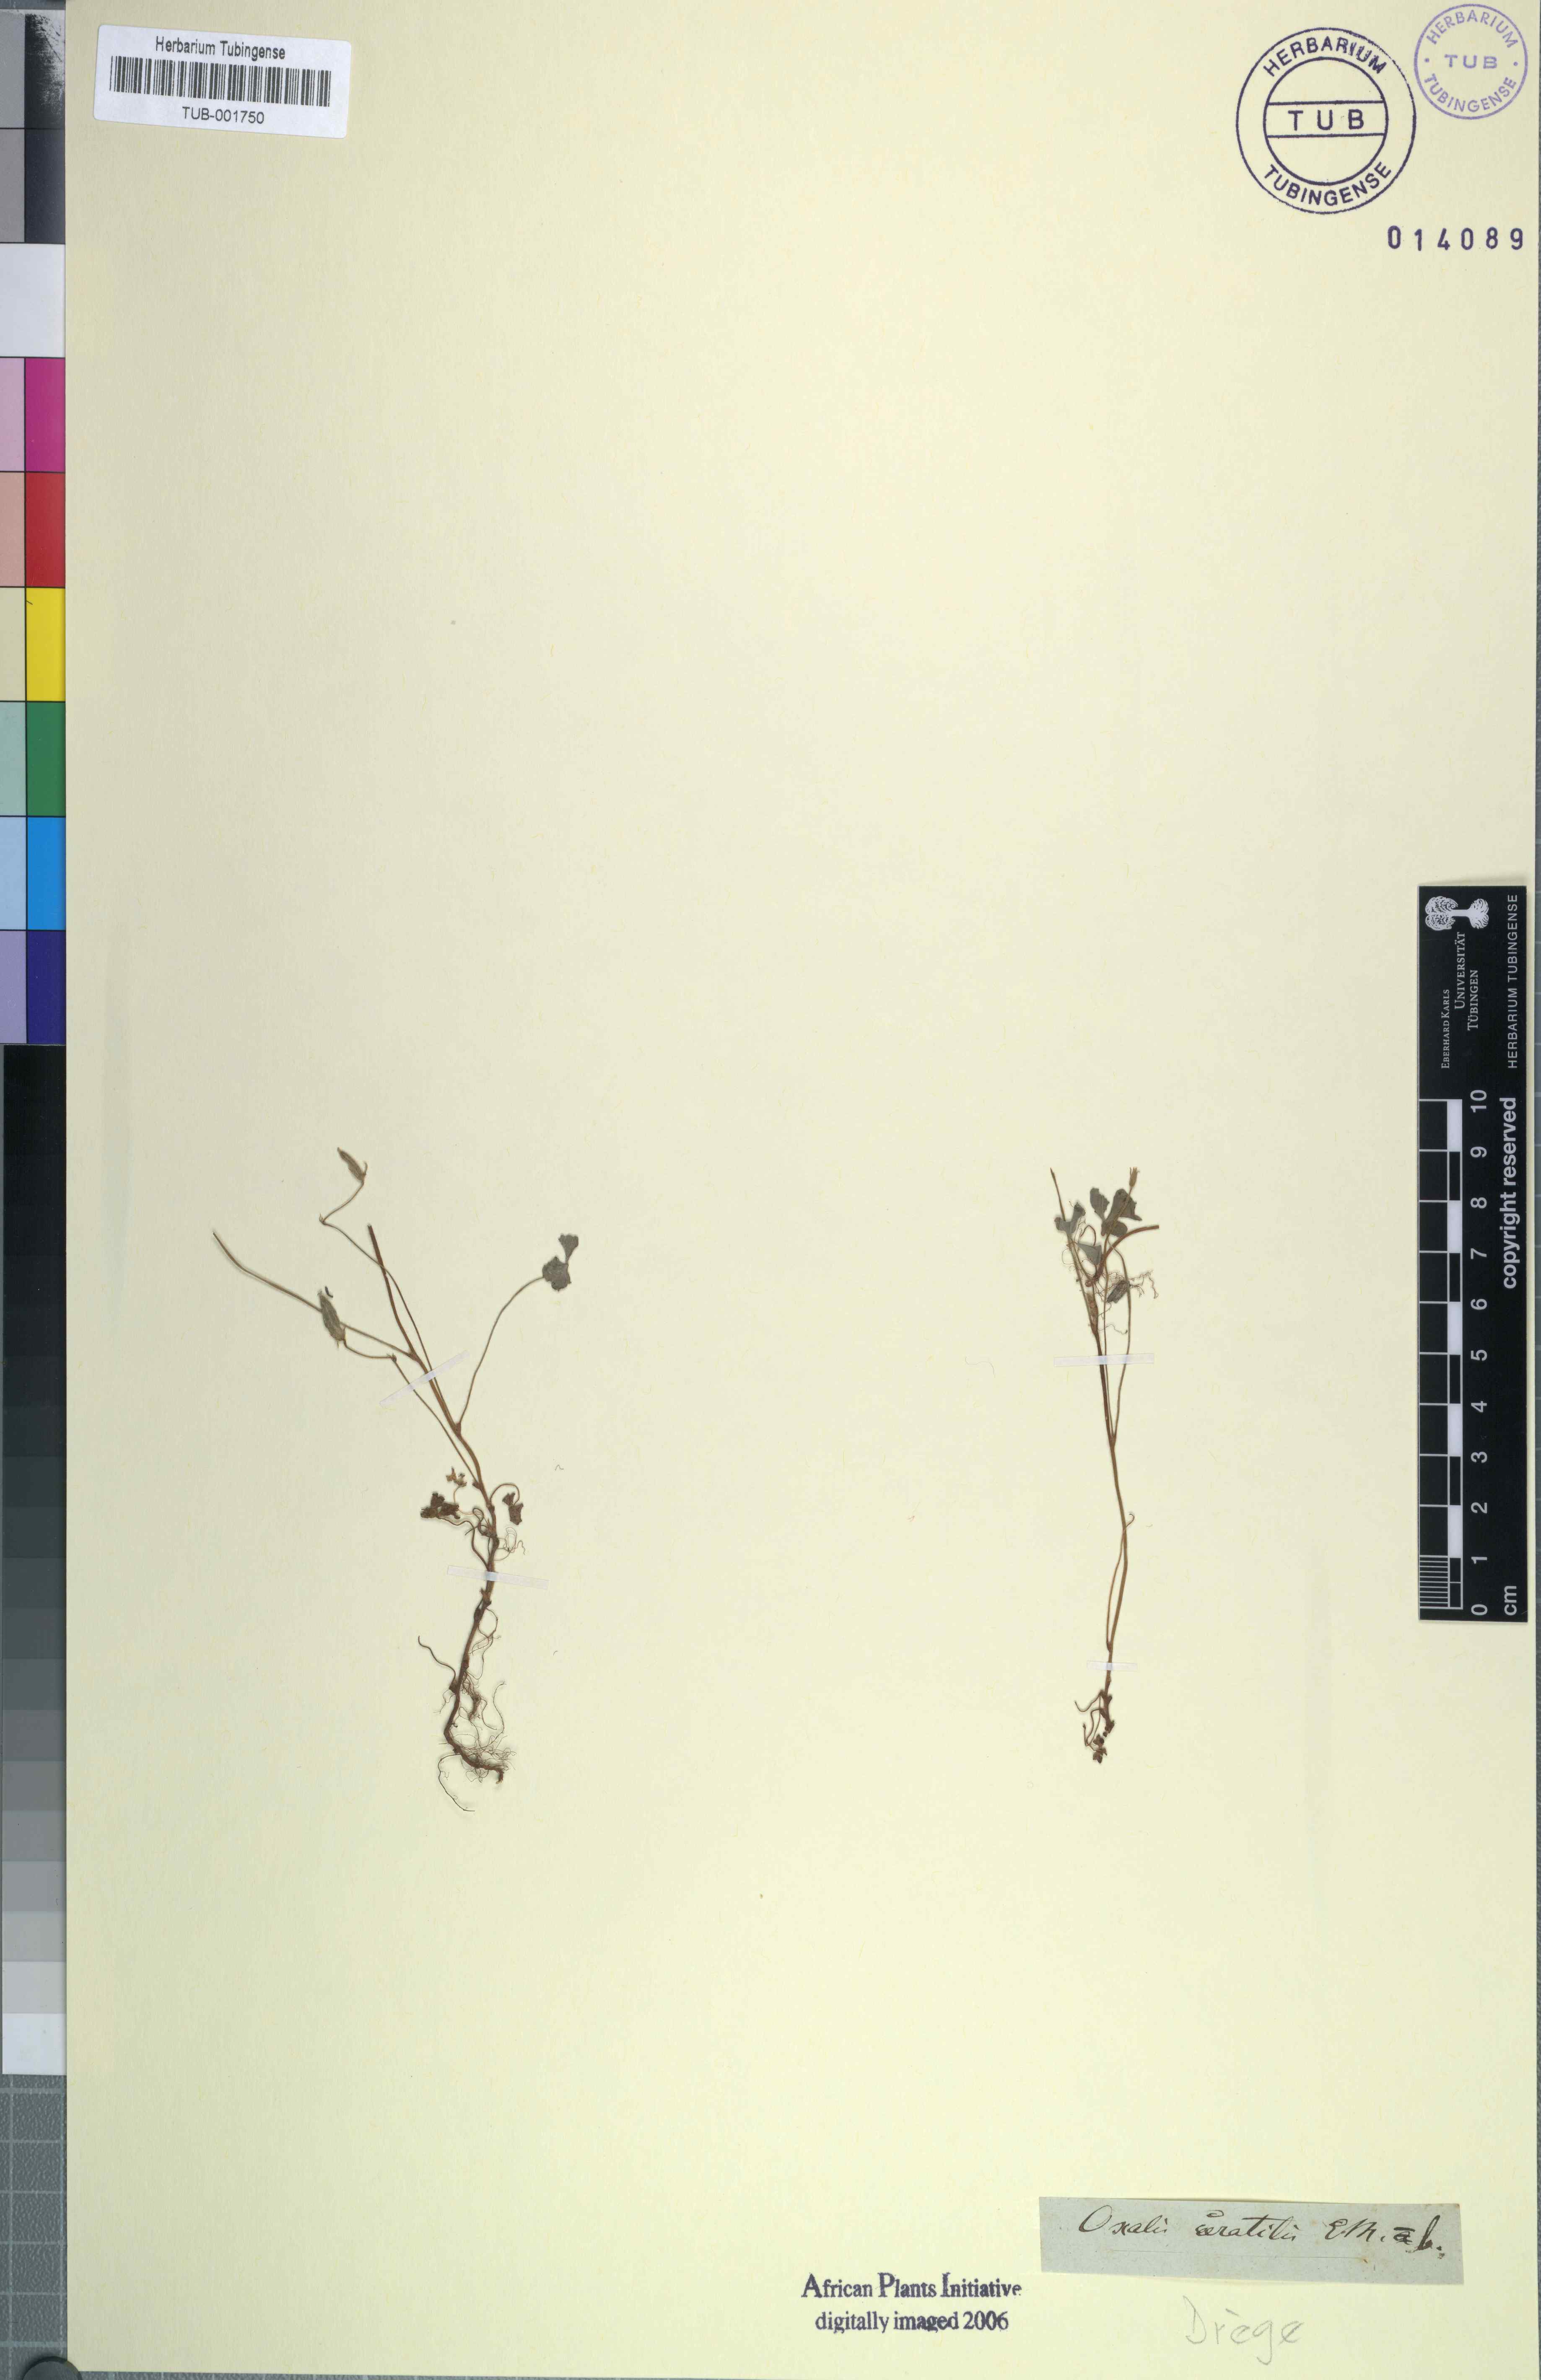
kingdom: Plantae
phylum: Tracheophyta
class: Magnoliopsida
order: Oxalidales
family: Oxalidaceae
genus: Oxalis
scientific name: Oxalis corniculata
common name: Procumbent yellow-sorrel
